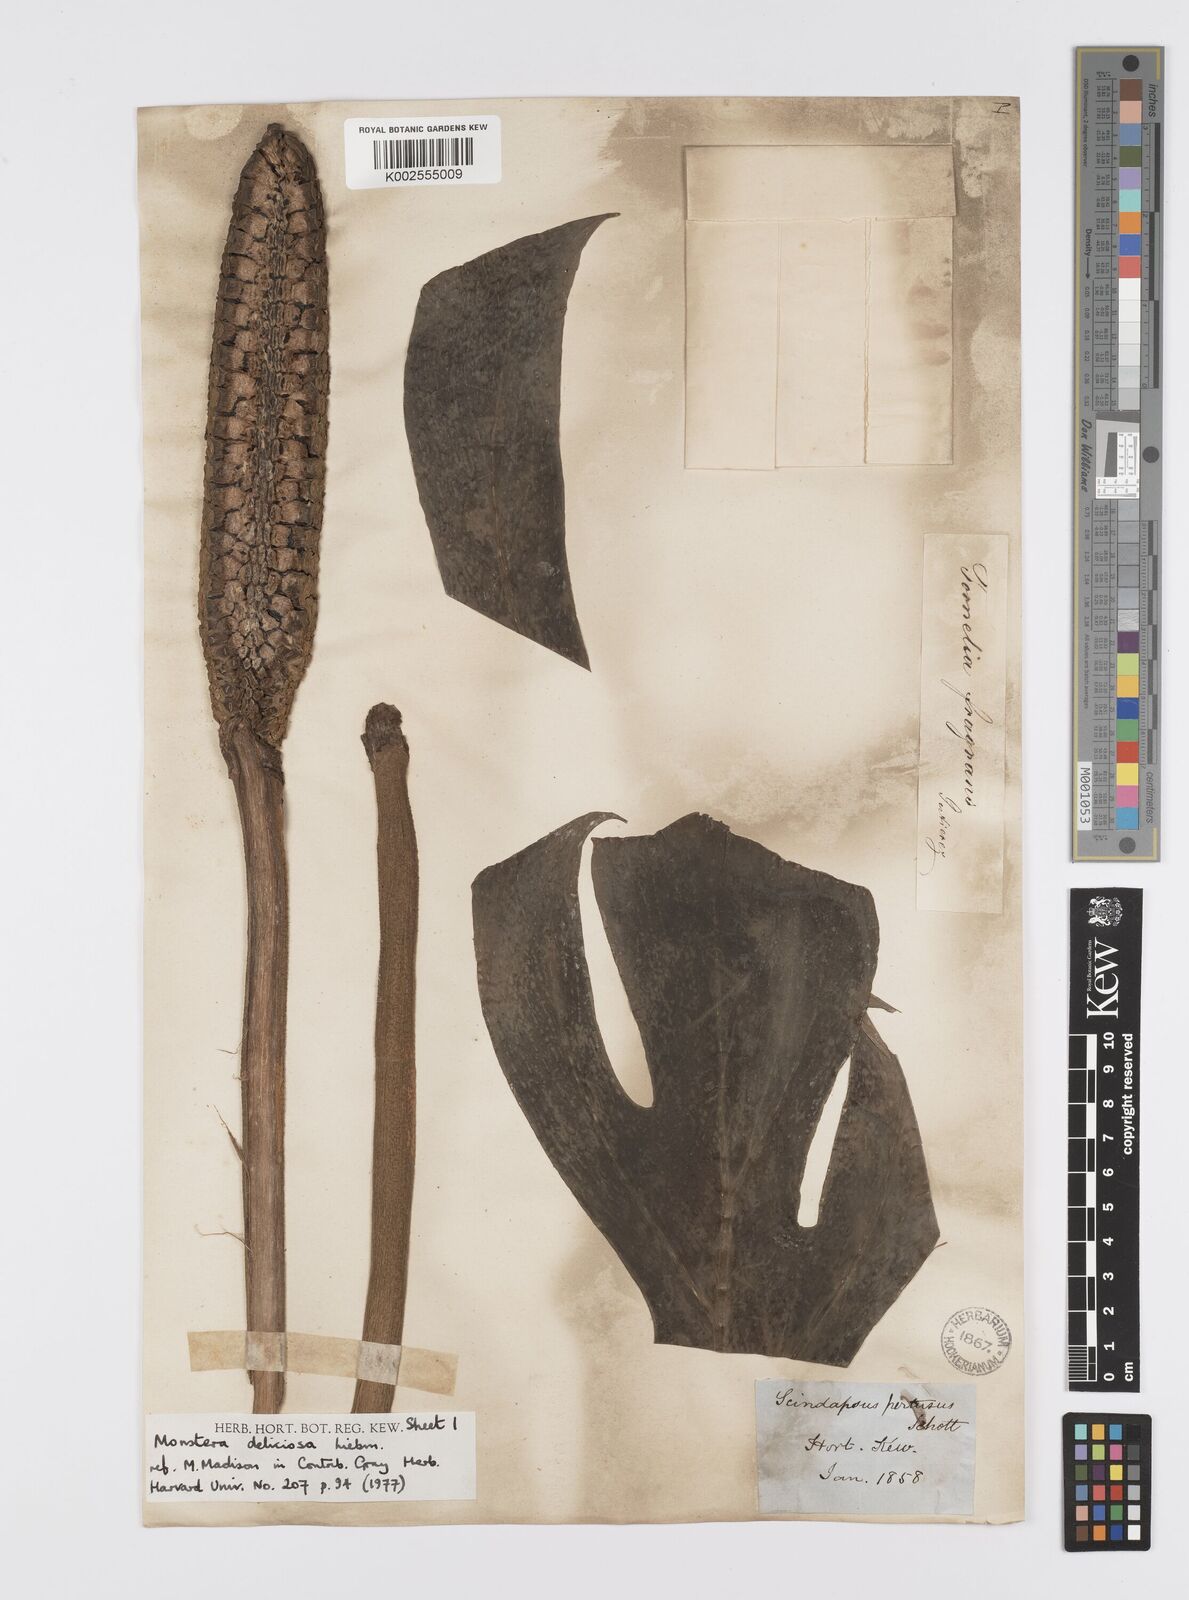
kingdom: Plantae
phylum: Tracheophyta
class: Liliopsida
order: Alismatales
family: Araceae
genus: Monstera
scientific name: Monstera deliciosa
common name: Cut-leaf-philodendron
